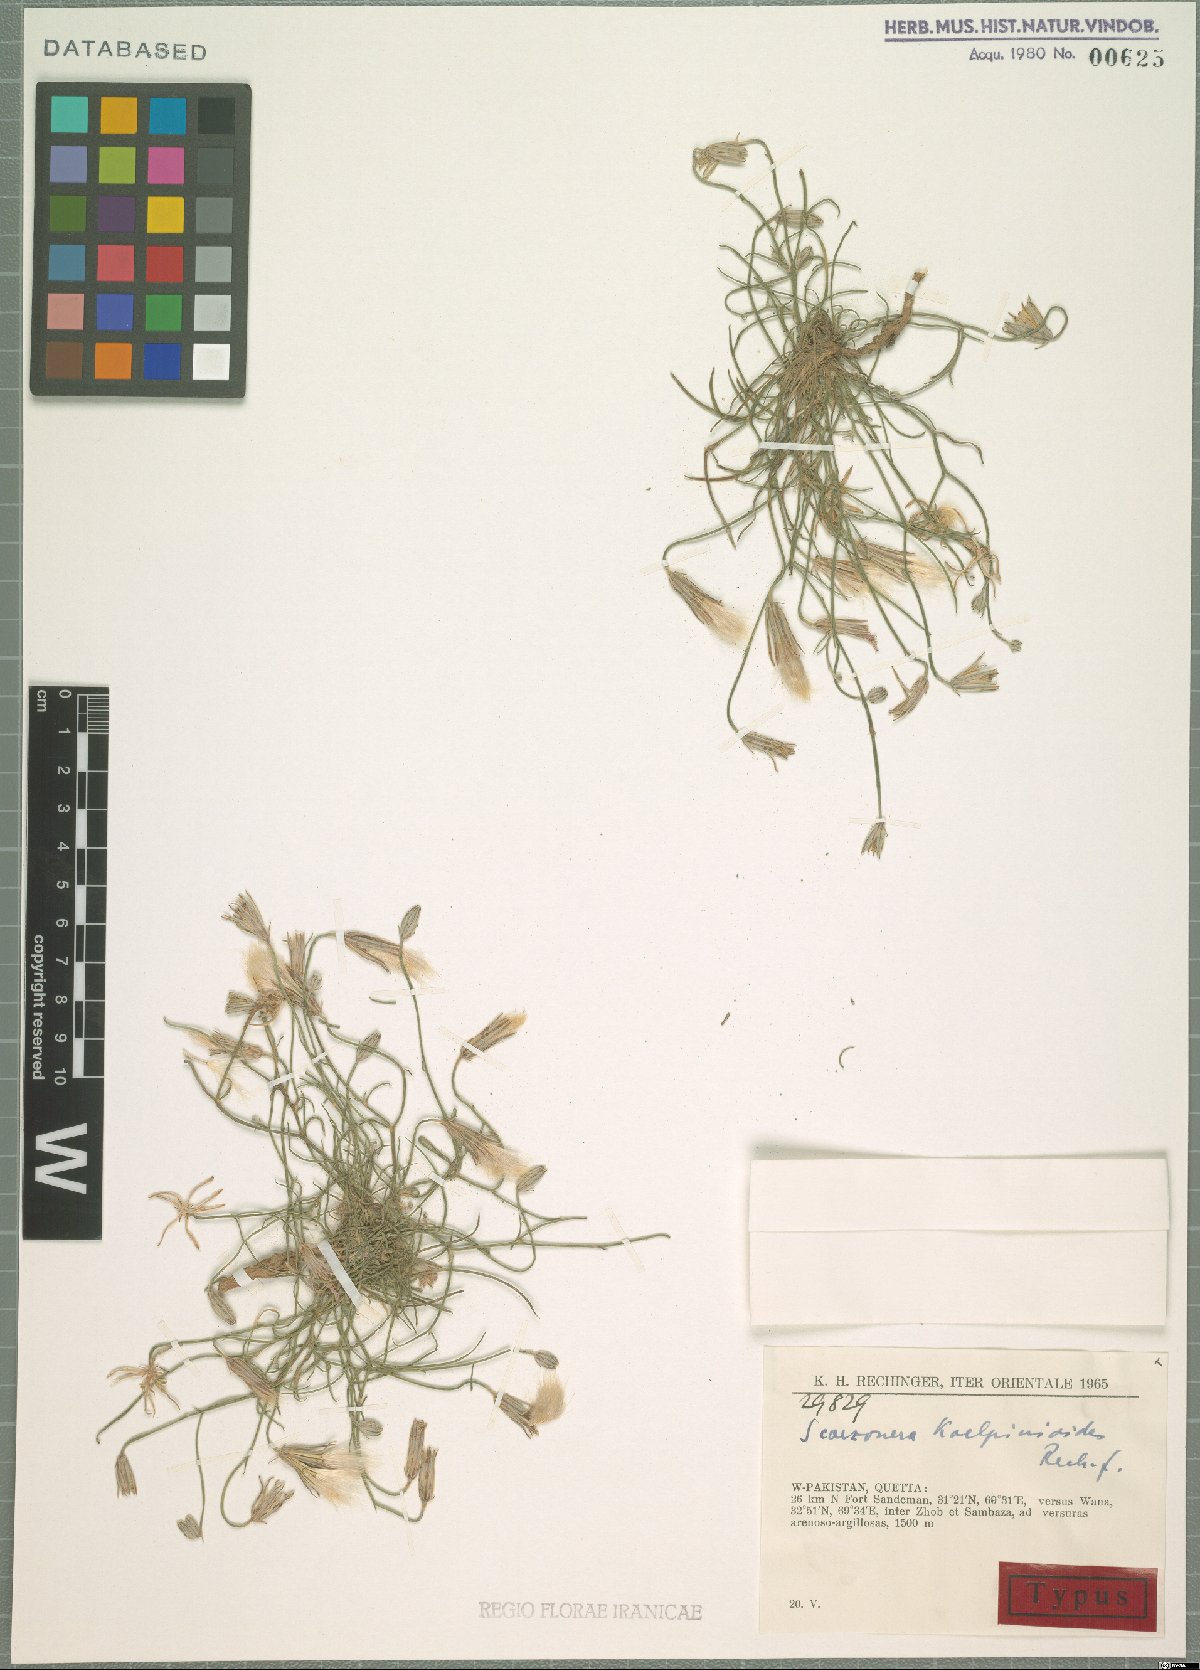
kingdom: Plantae
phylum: Tracheophyta
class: Magnoliopsida
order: Asterales
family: Asteraceae
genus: Ramaliella
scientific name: Ramaliella koelpinioides
